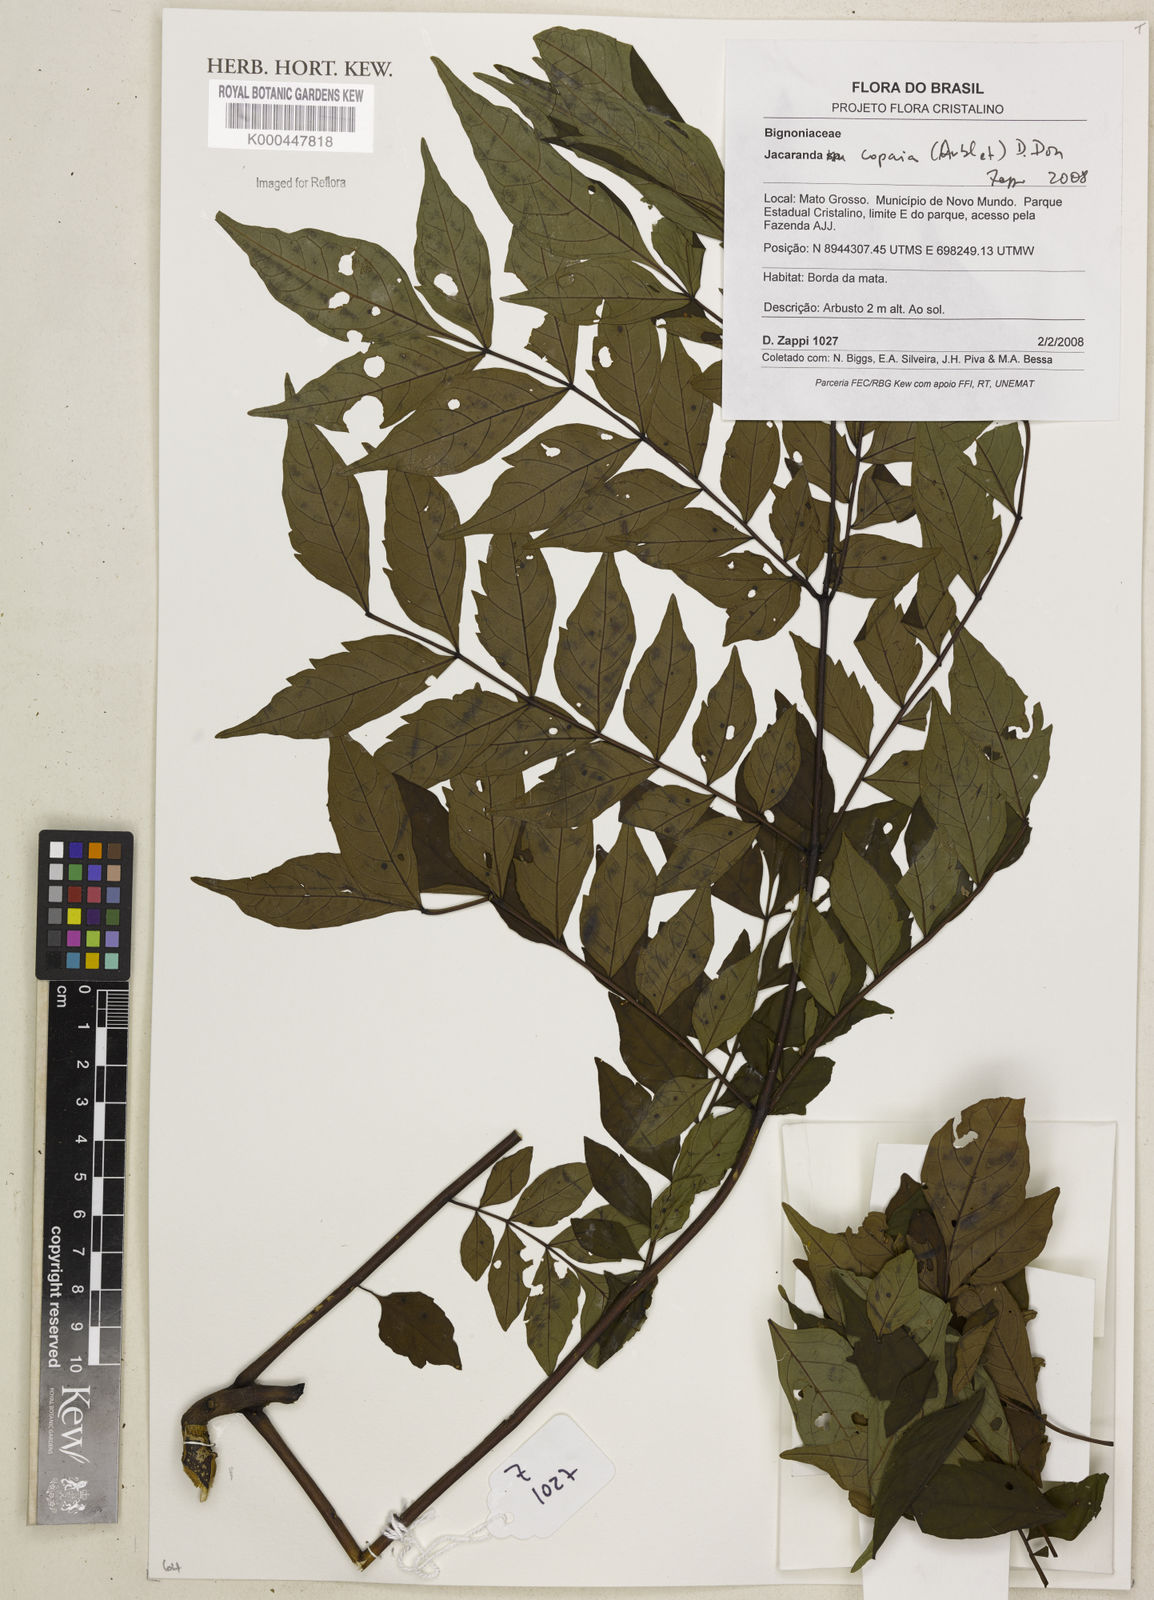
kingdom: Plantae
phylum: Tracheophyta
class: Magnoliopsida
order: Lamiales
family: Bignoniaceae
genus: Jacaranda
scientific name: Jacaranda copaia
